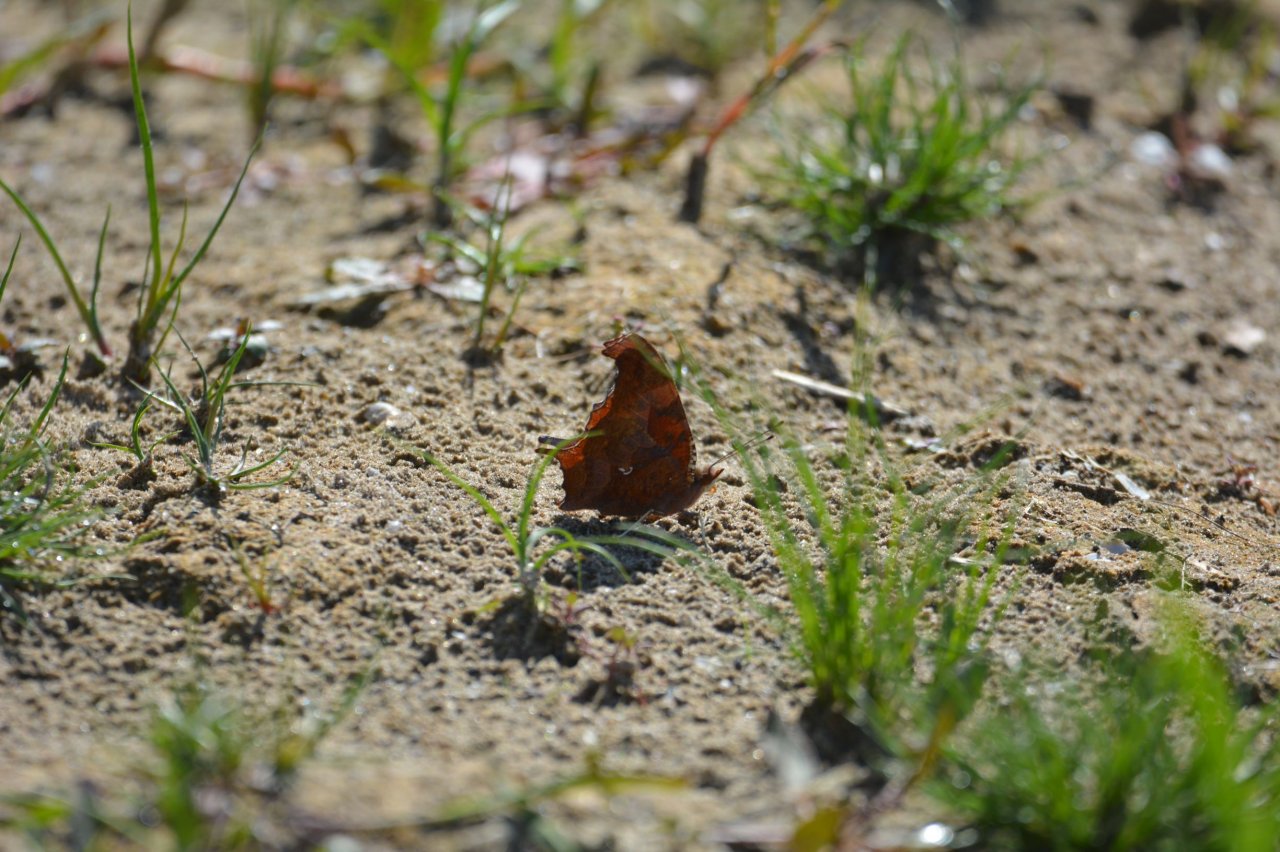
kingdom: Animalia
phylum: Arthropoda
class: Insecta
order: Lepidoptera
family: Nymphalidae
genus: Polygonia
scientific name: Polygonia interrogationis
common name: Question Mark
